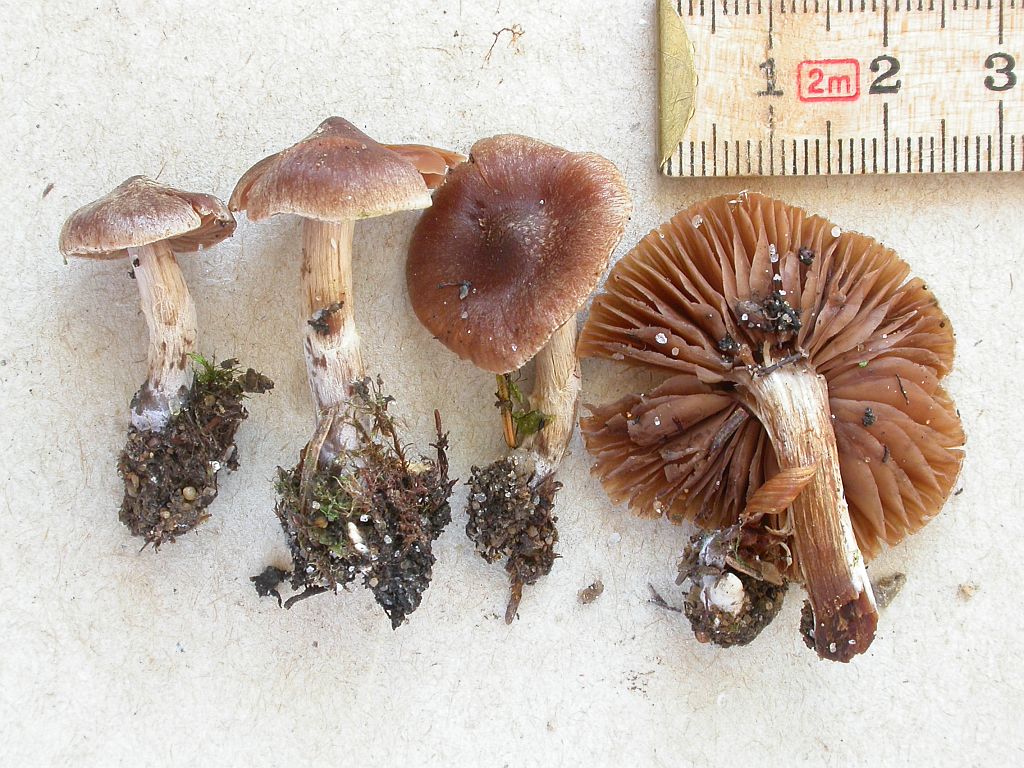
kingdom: Fungi
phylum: Basidiomycota
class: Agaricomycetes
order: Agaricales
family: Cortinariaceae
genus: Cortinarius
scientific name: Cortinarius pinisquamulosus
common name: finskællet slørhat
